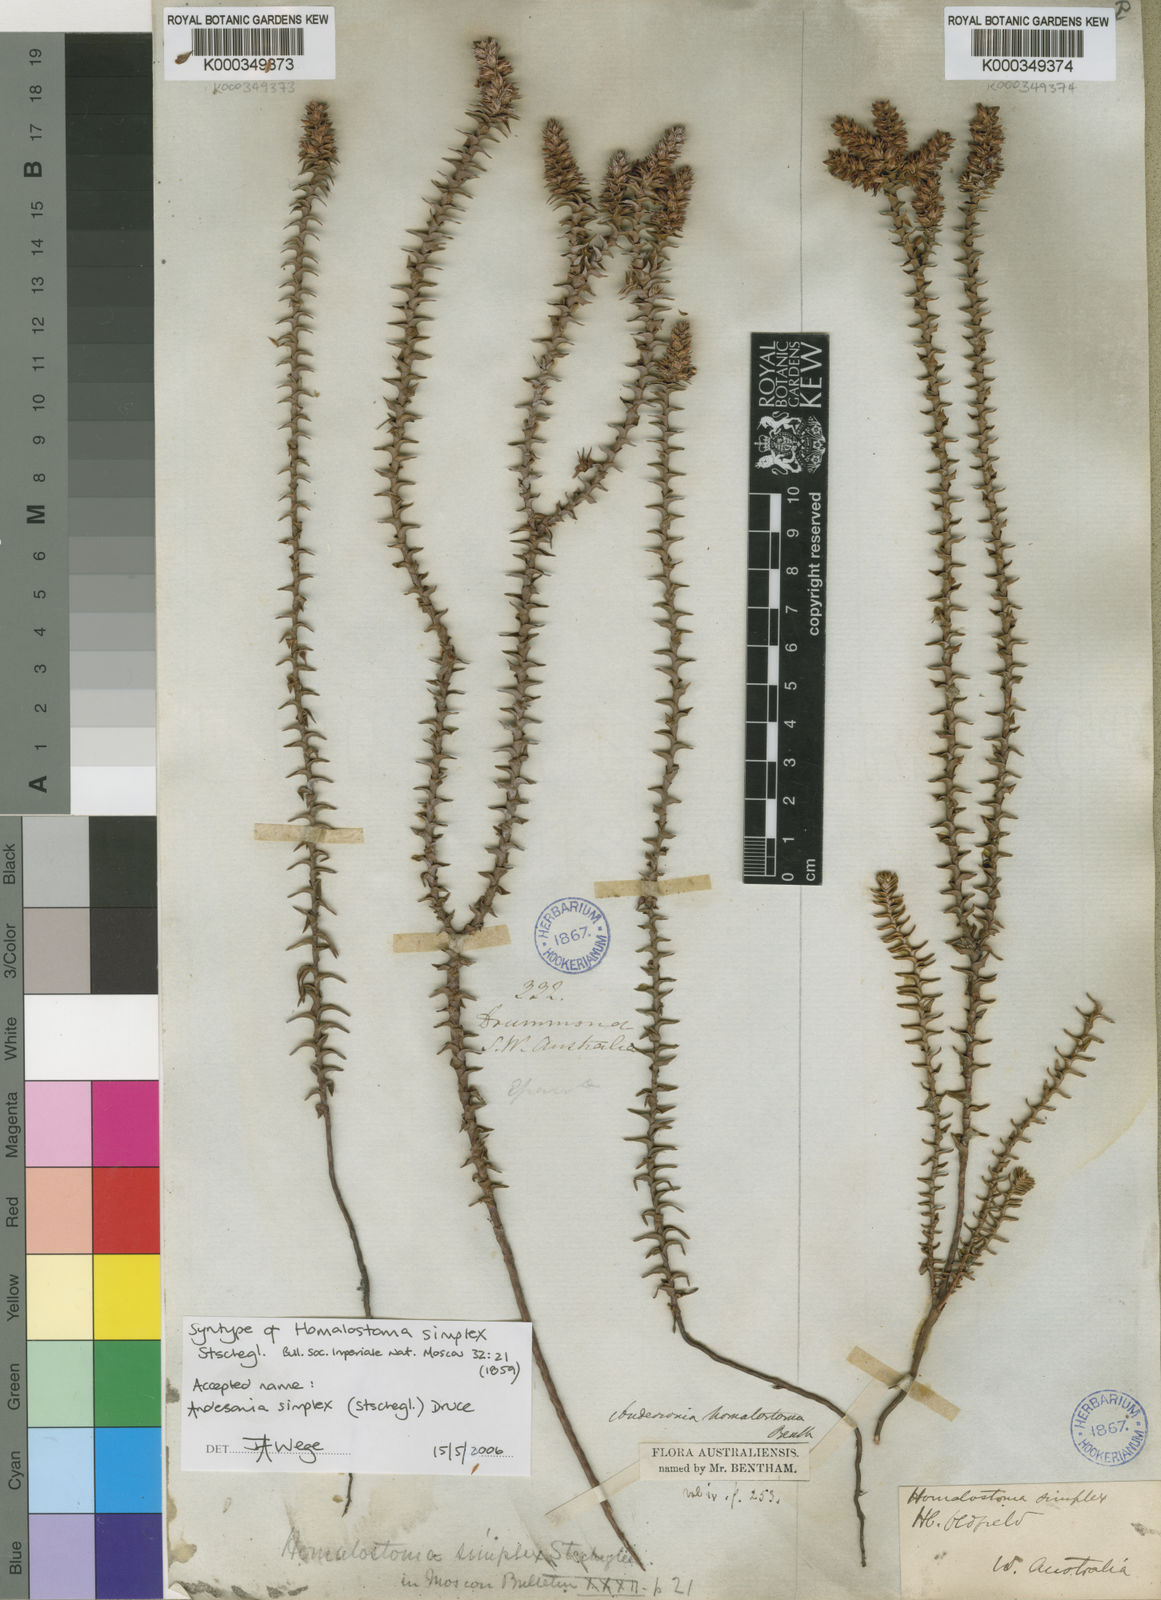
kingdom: Plantae
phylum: Tracheophyta
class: Magnoliopsida
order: Ericales
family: Ericaceae
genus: Andersonia
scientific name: Andersonia simplex
